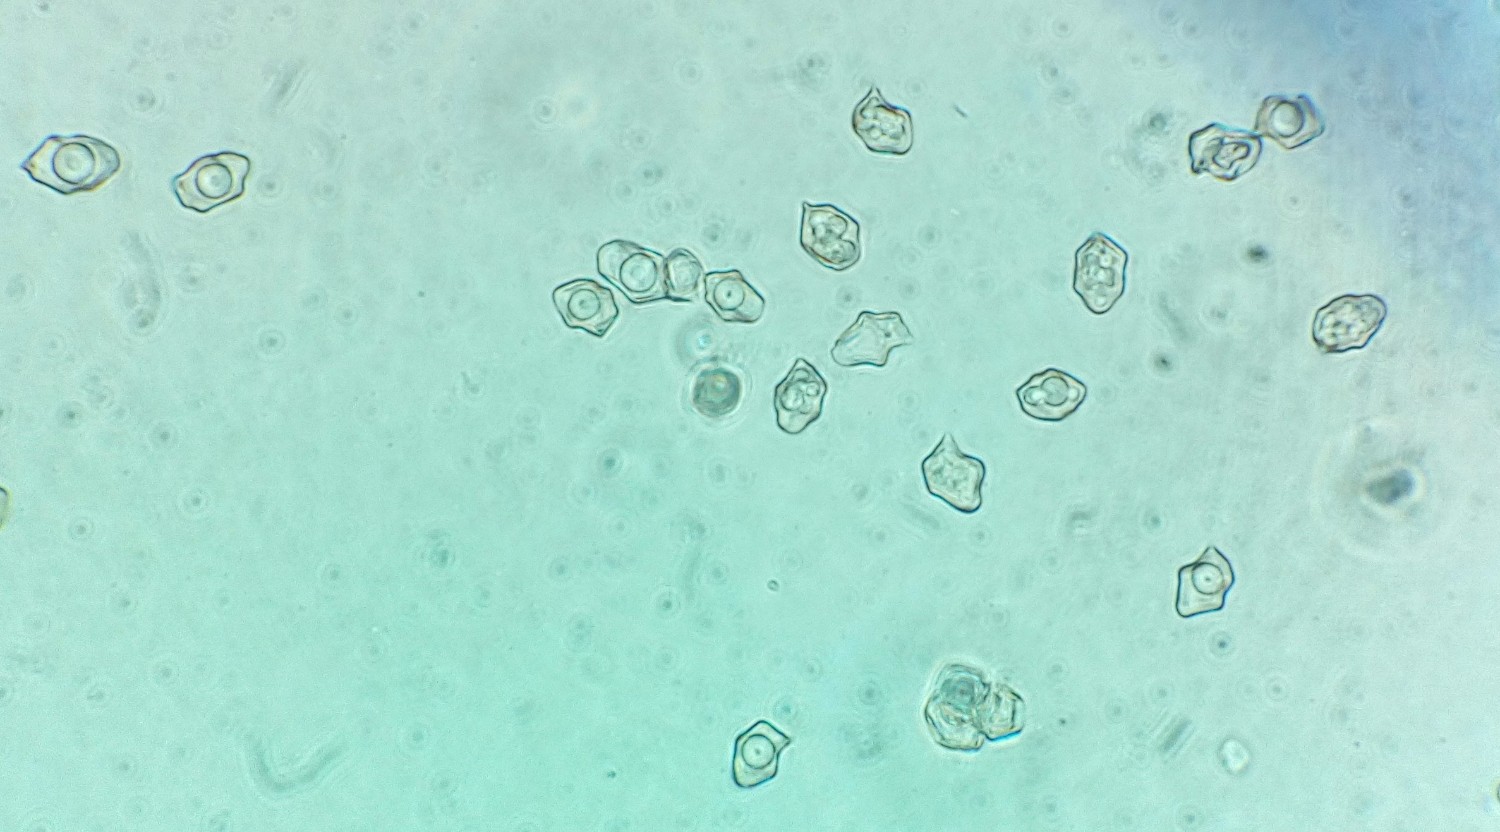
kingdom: Fungi
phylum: Basidiomycota
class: Agaricomycetes
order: Agaricales
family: Entolomataceae
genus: Entoloma
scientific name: Entoloma sericellum
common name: silkehvid rødblad
